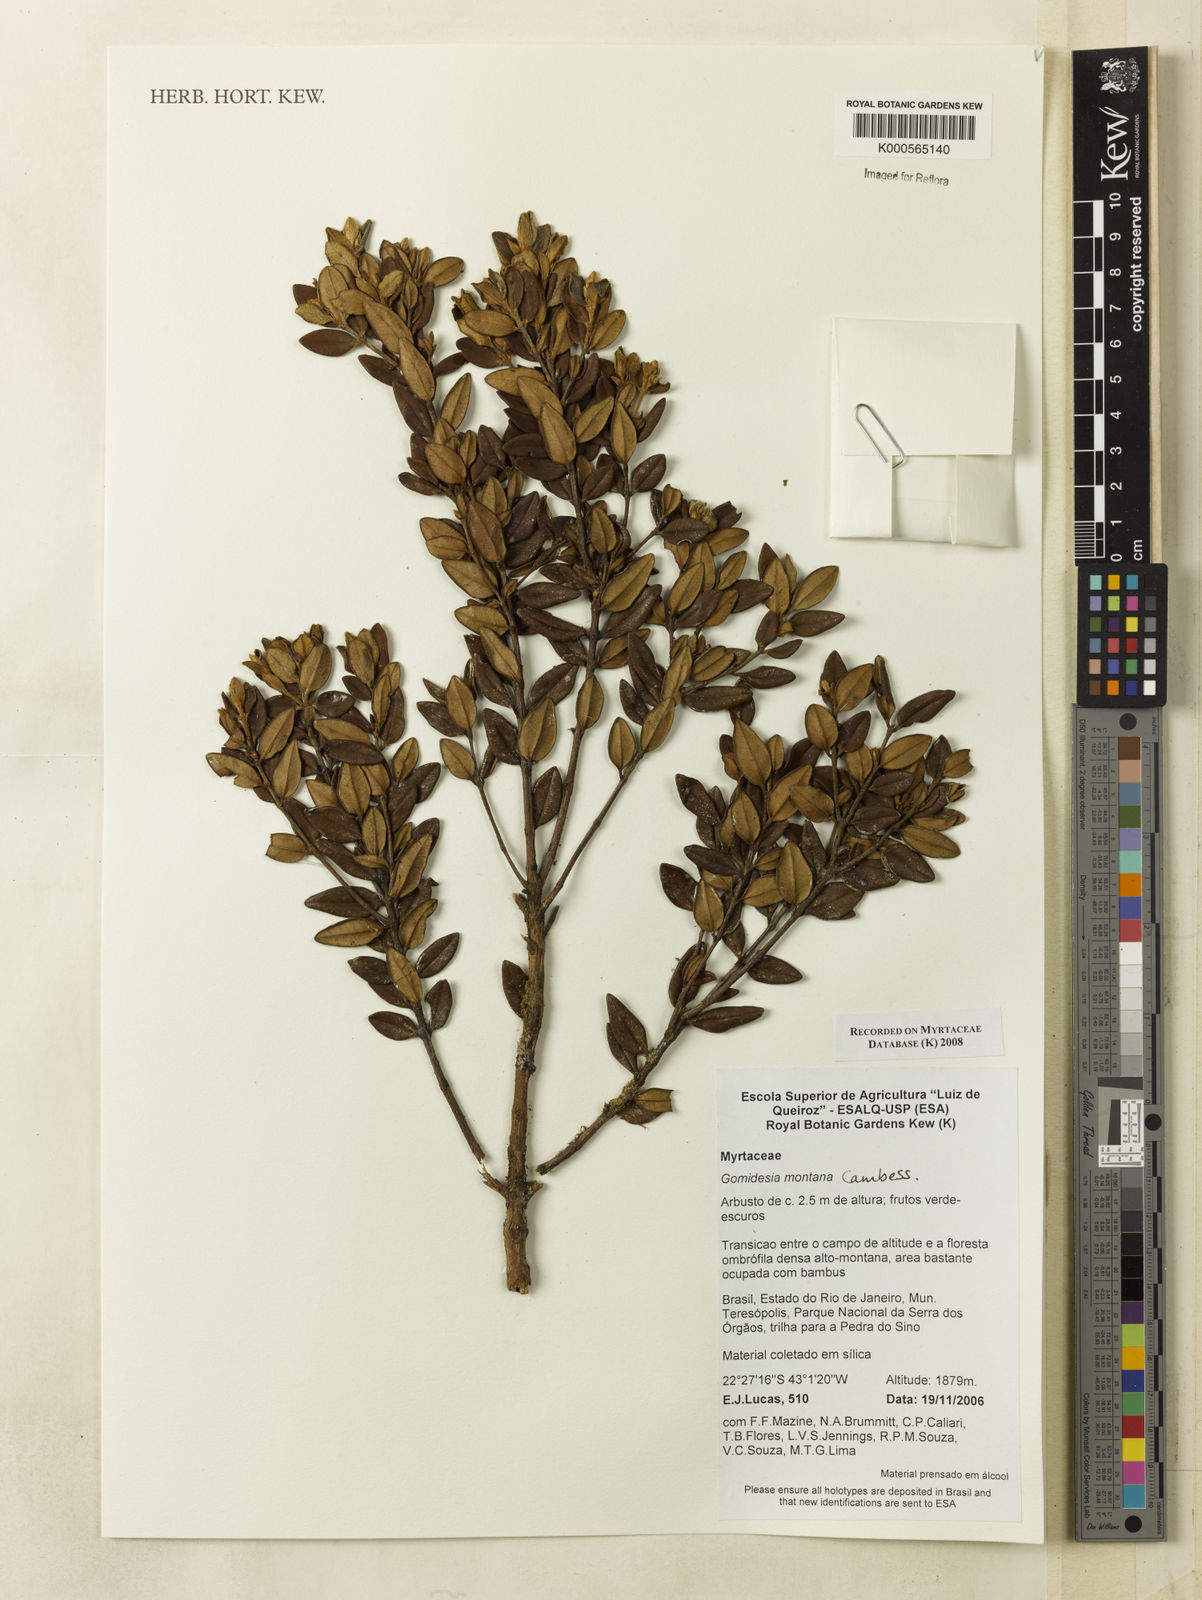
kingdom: Plantae
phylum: Tracheophyta
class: Magnoliopsida
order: Myrtales
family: Myrtaceae
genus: Myrcia
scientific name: Myrcia montana
